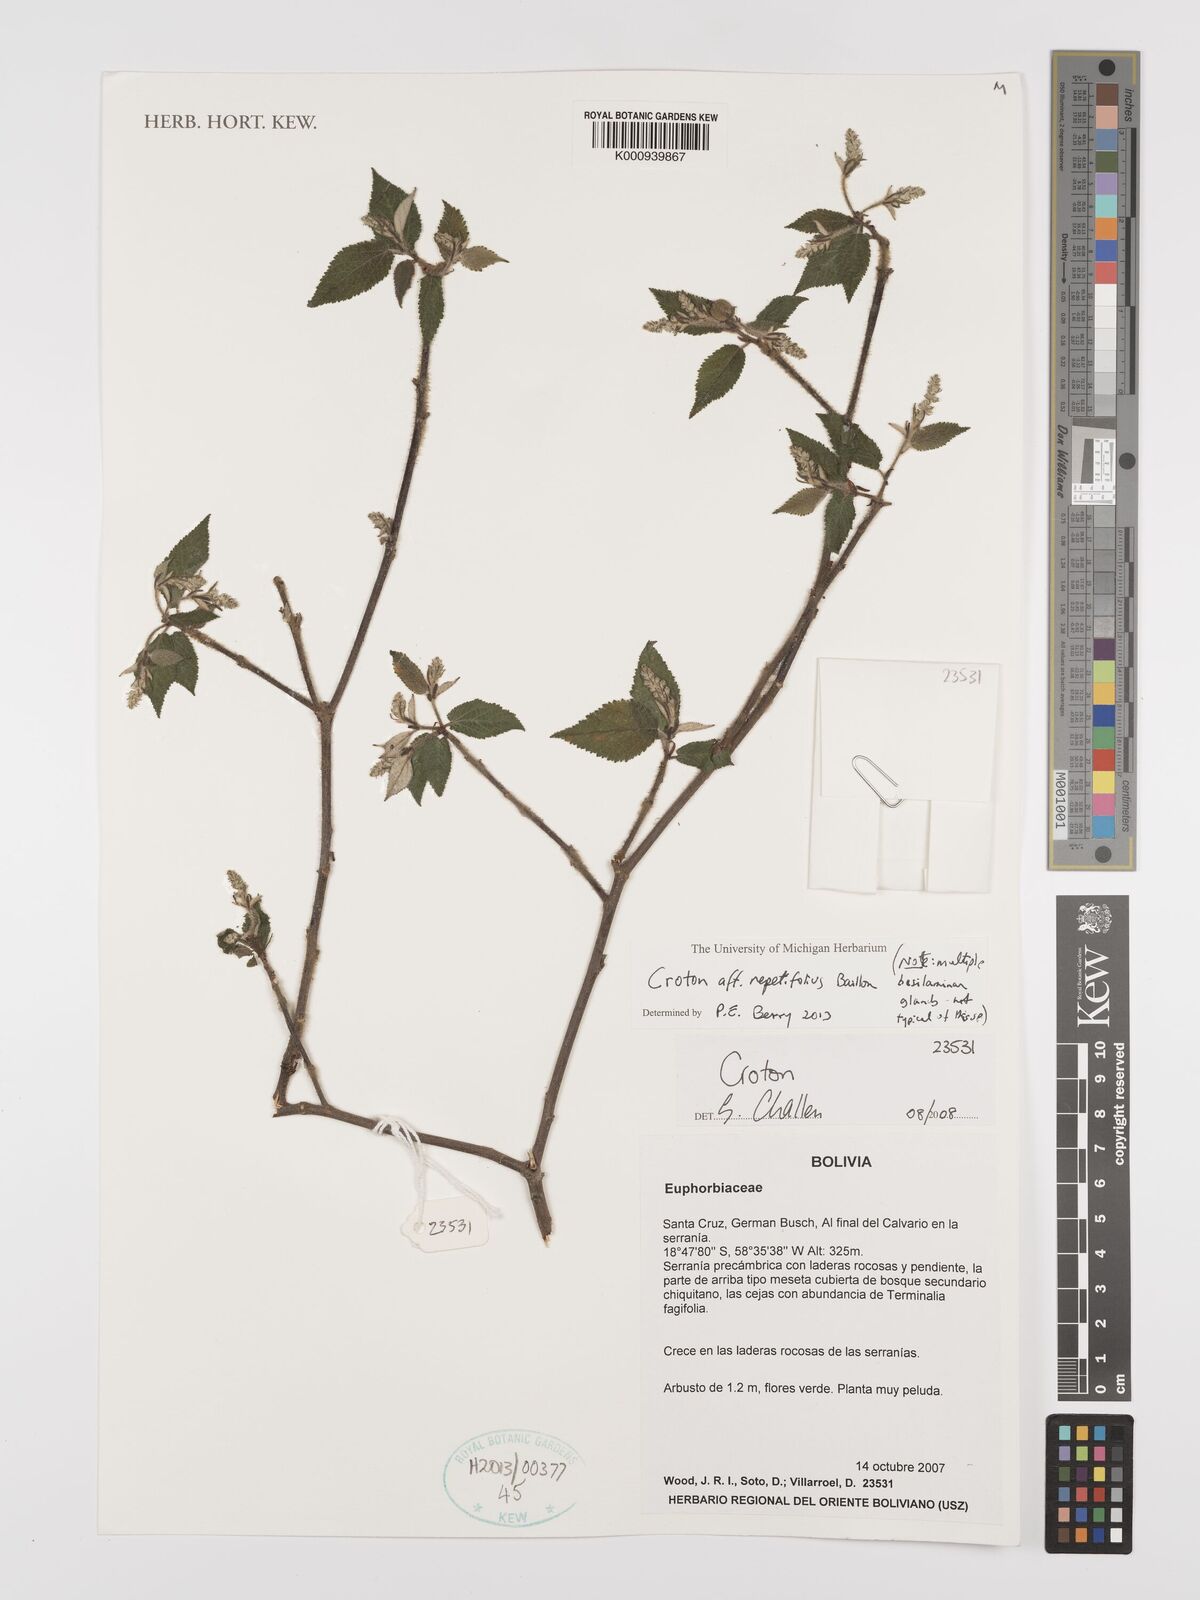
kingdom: Plantae
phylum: Tracheophyta
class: Magnoliopsida
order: Malpighiales
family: Euphorbiaceae
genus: Croton
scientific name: Croton nepetifolius
